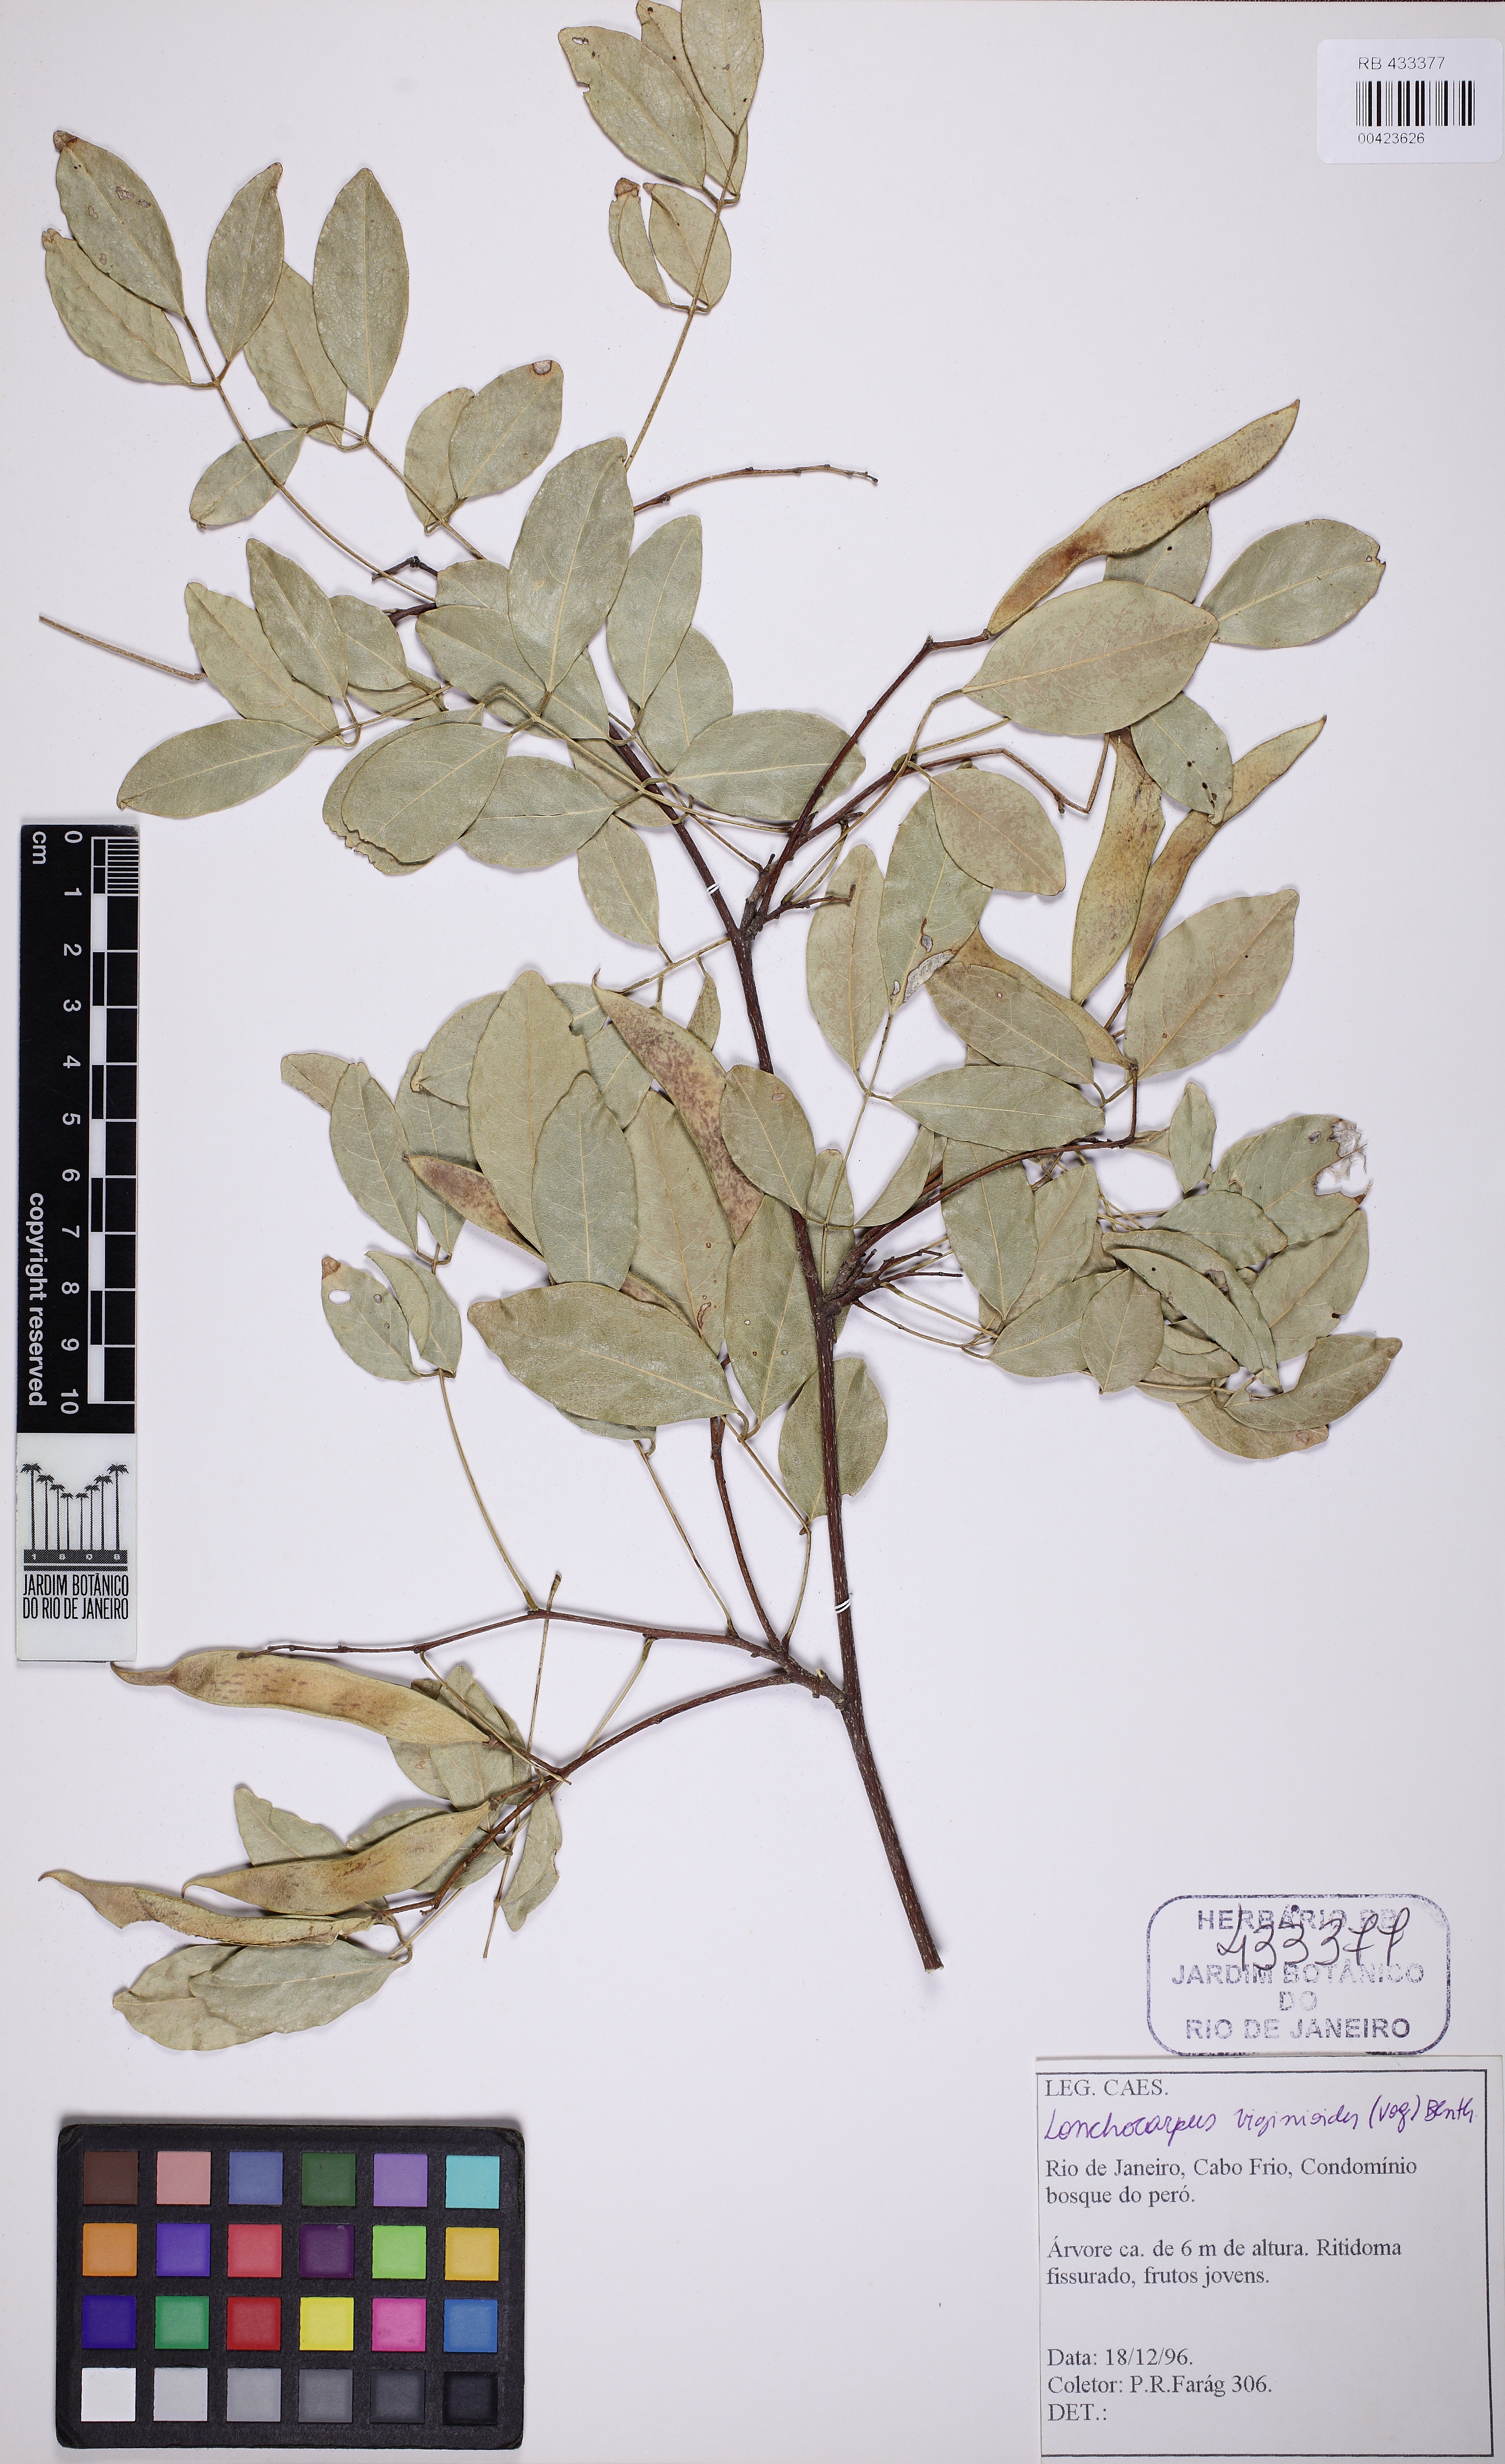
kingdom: Plantae
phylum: Tracheophyta
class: Magnoliopsida
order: Fabales
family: Fabaceae
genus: Muellera
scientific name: Muellera virgilioides
